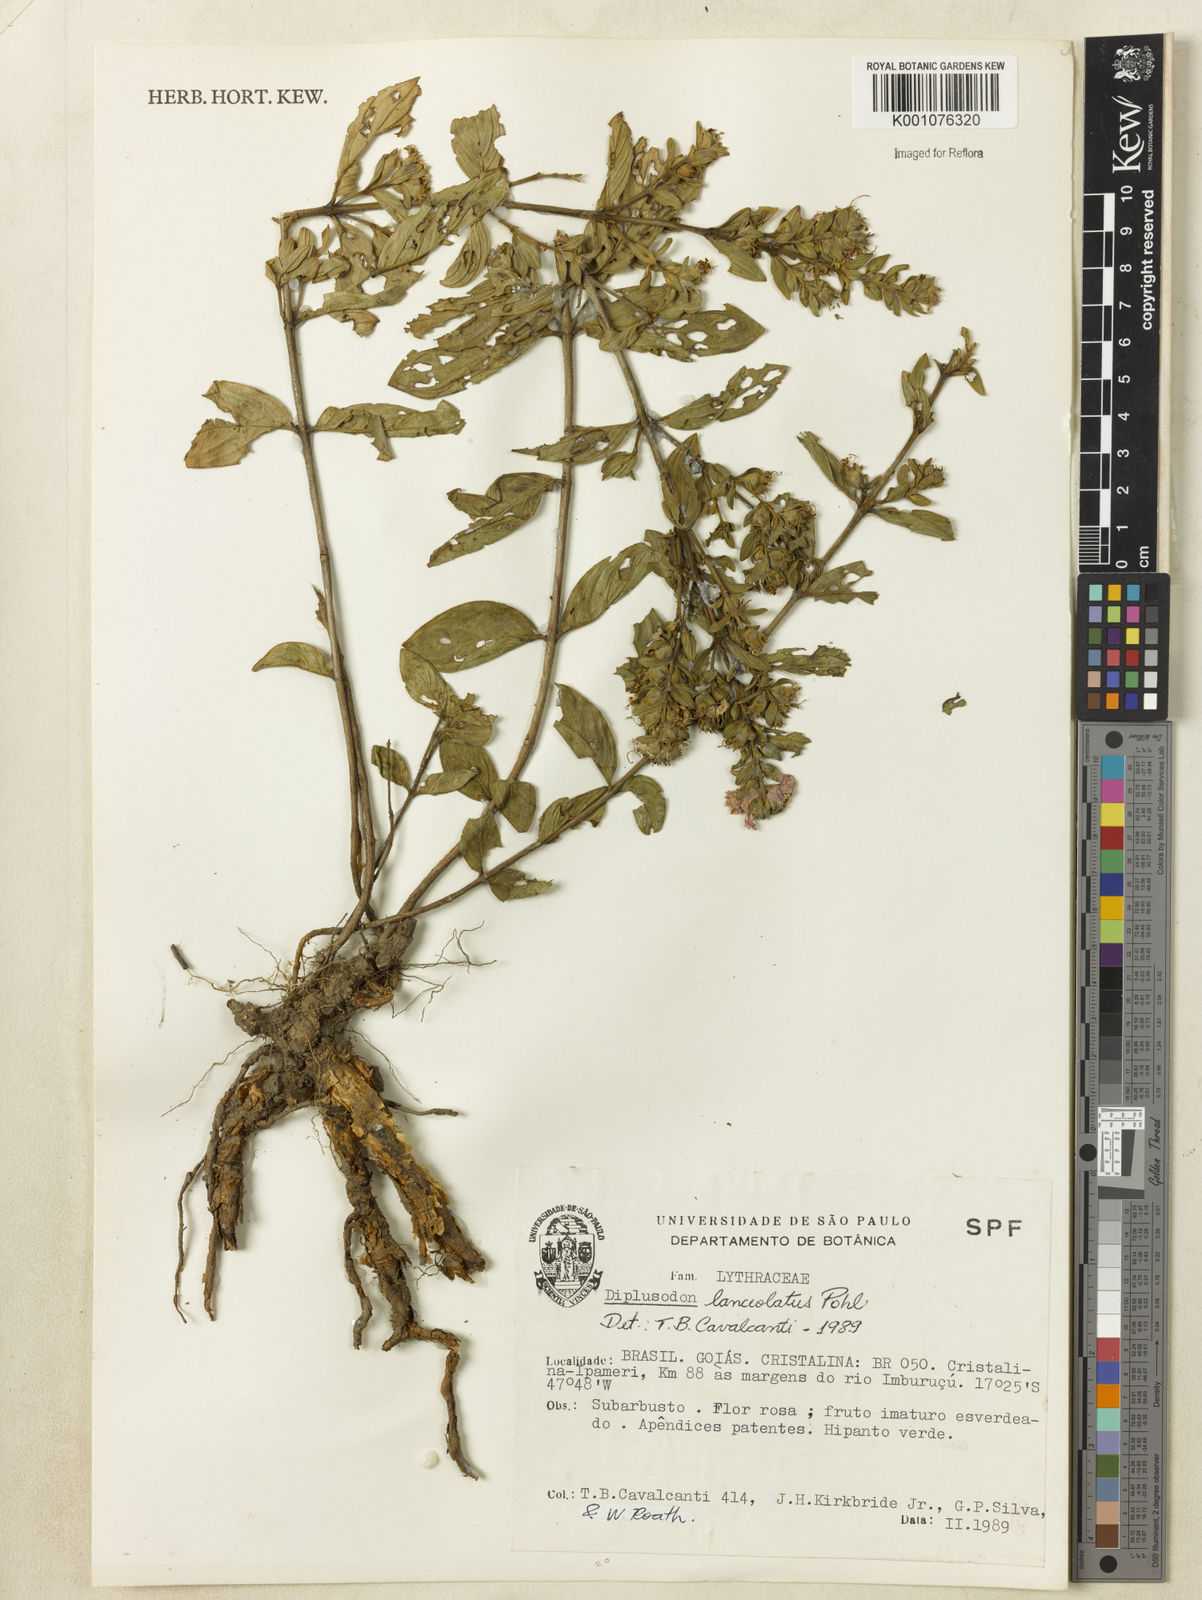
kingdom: Plantae
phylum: Tracheophyta
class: Magnoliopsida
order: Myrtales
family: Lythraceae
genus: Diplusodon
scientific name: Diplusodon lanceolatus
